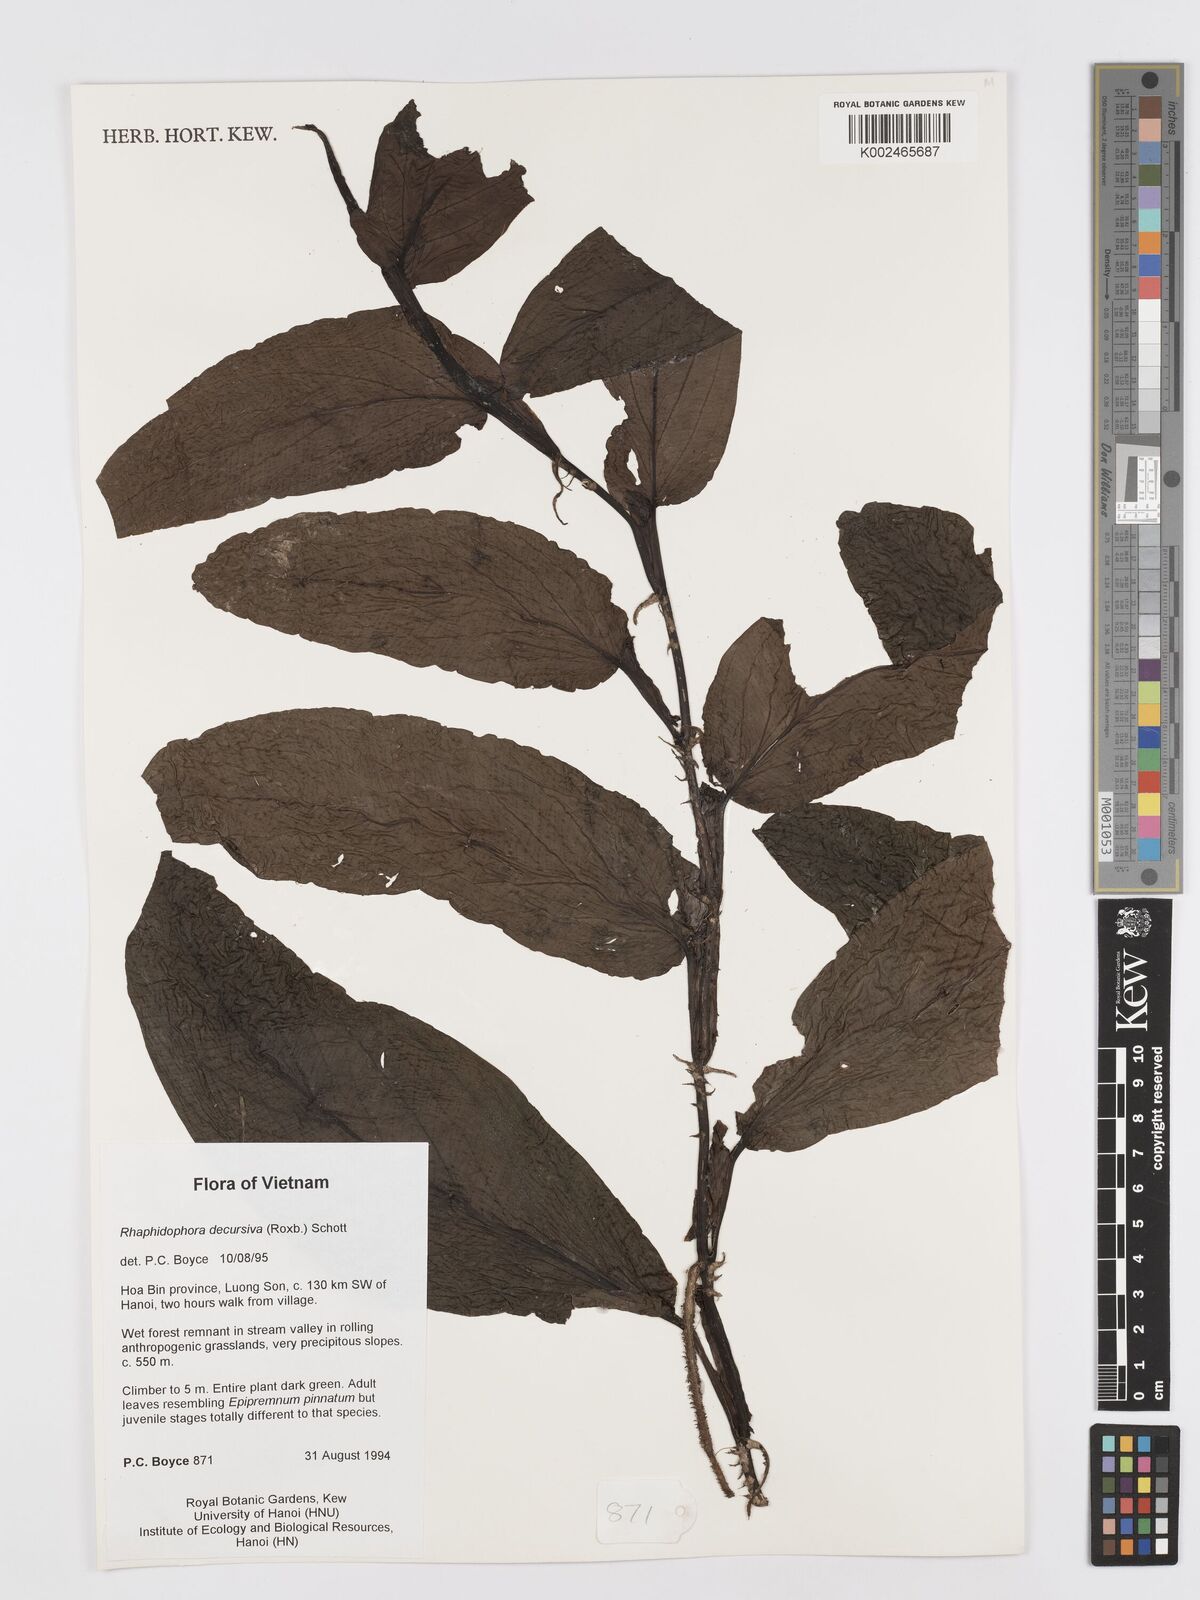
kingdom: Plantae
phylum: Tracheophyta
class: Liliopsida
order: Alismatales
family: Araceae
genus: Rhaphidophora
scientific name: Rhaphidophora crassicaulis
